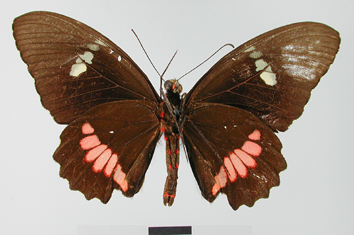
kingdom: Animalia
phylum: Arthropoda
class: Insecta
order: Lepidoptera
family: Papilionidae
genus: Parides
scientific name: Parides iphidamas
